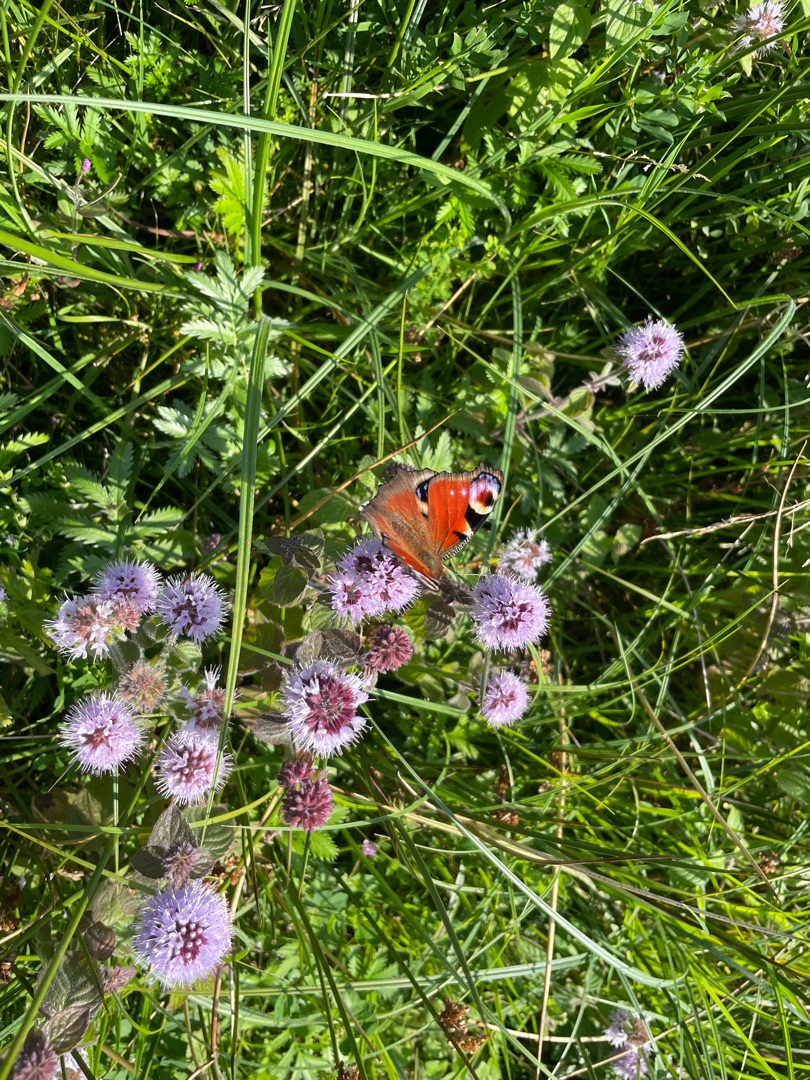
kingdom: Animalia
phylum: Arthropoda
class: Insecta
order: Lepidoptera
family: Nymphalidae
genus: Aglais
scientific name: Aglais io
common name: Dagpåfugleøje
